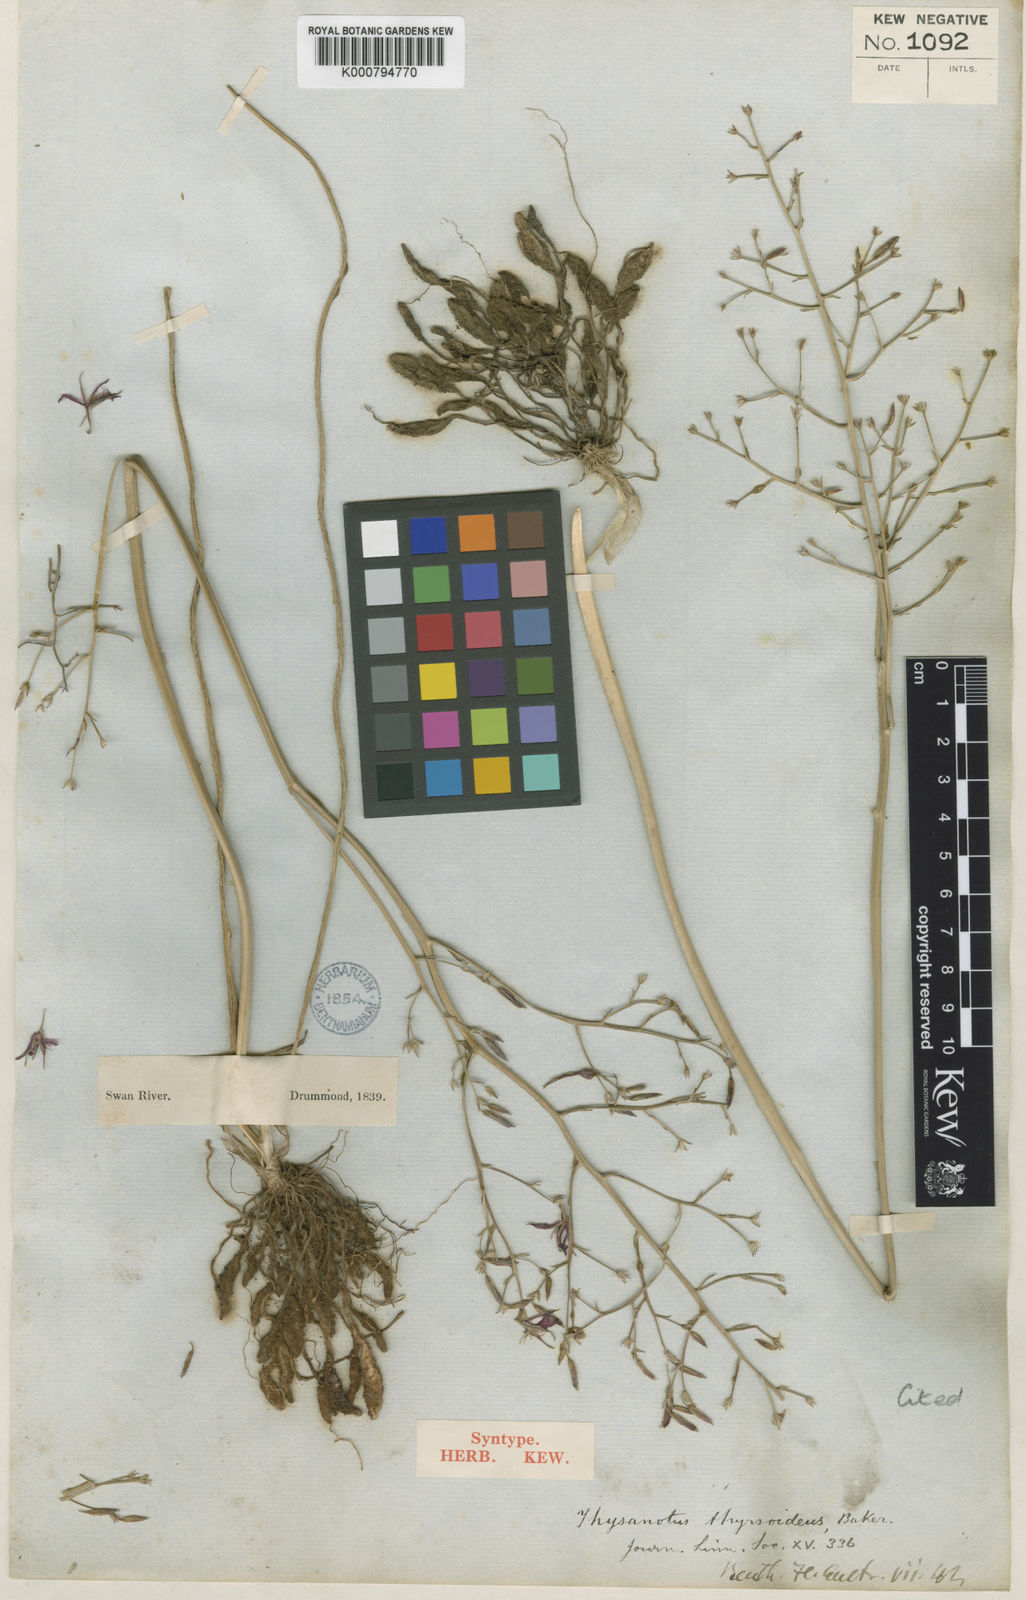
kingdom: Plantae
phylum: Tracheophyta
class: Liliopsida
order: Asparagales
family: Asparagaceae
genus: Thysanotus
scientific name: Thysanotus thyrsoideus
